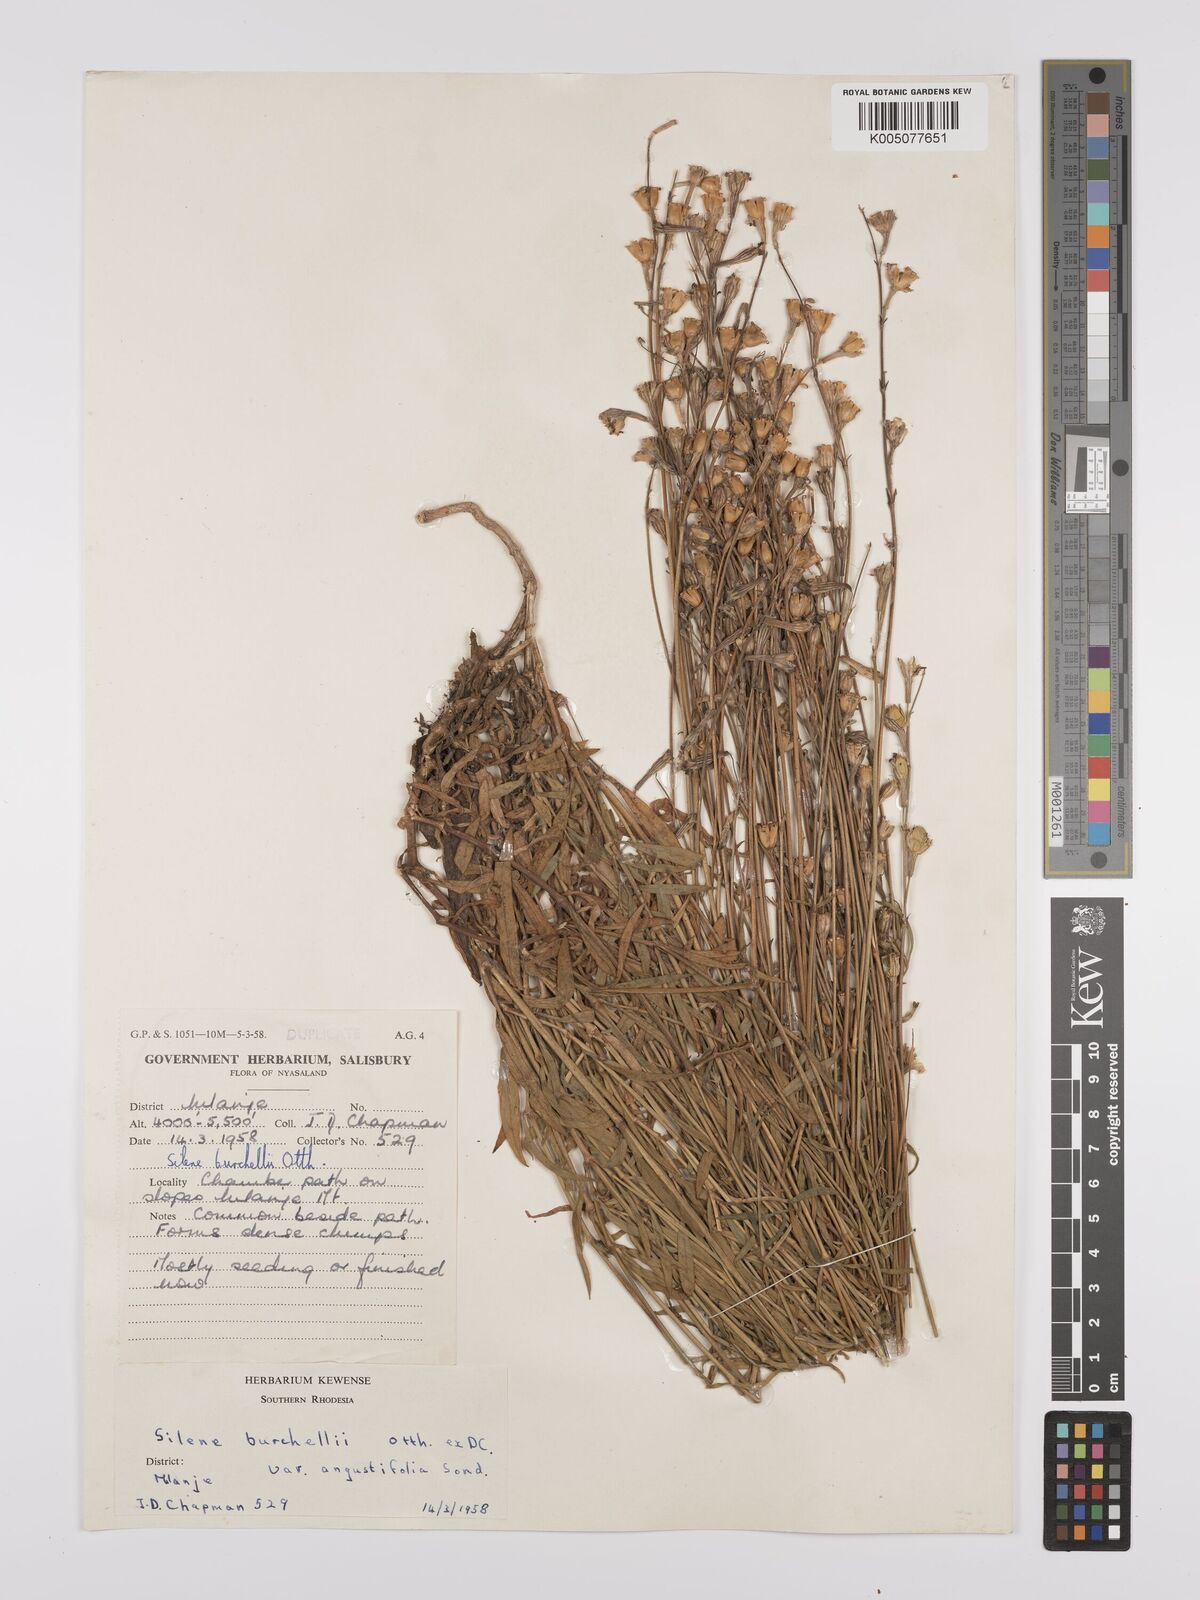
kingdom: Plantae
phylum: Tracheophyta
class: Magnoliopsida
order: Caryophyllales
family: Caryophyllaceae
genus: Silene
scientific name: Silene burchellii
